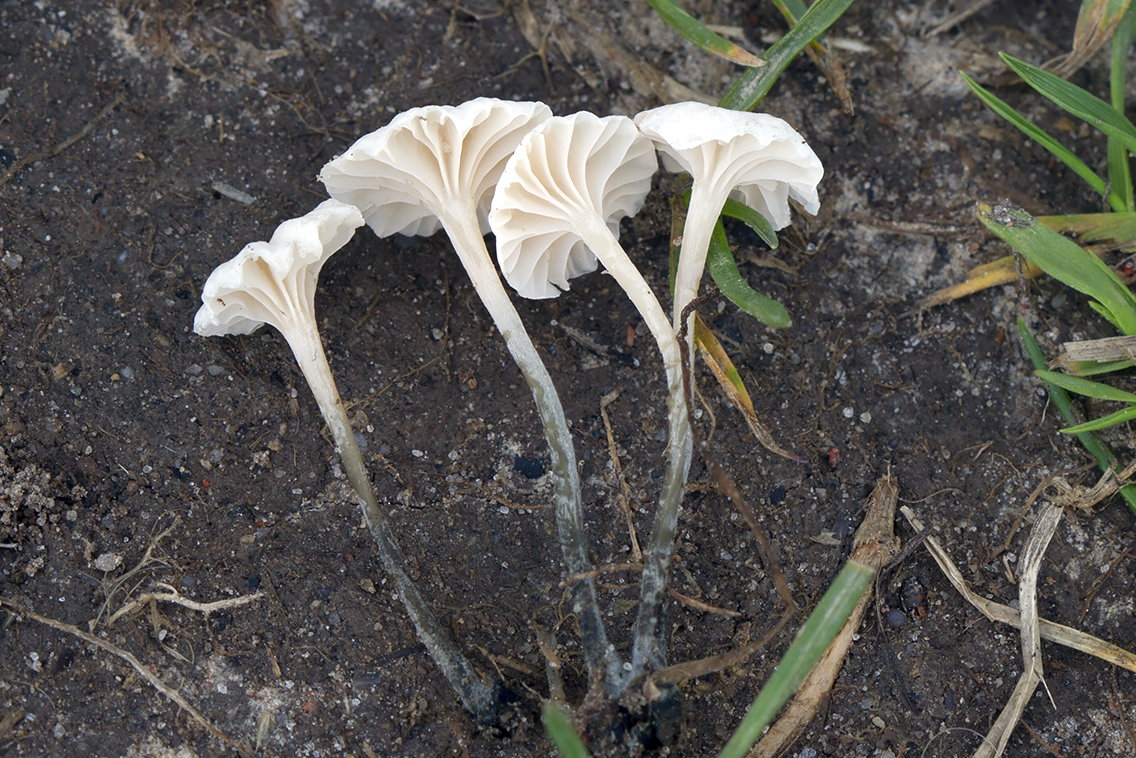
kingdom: Fungi
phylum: Basidiomycota
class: Agaricomycetes
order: Agaricales
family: Omphalotaceae
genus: Marasmiellus
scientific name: Marasmiellus tricolor
